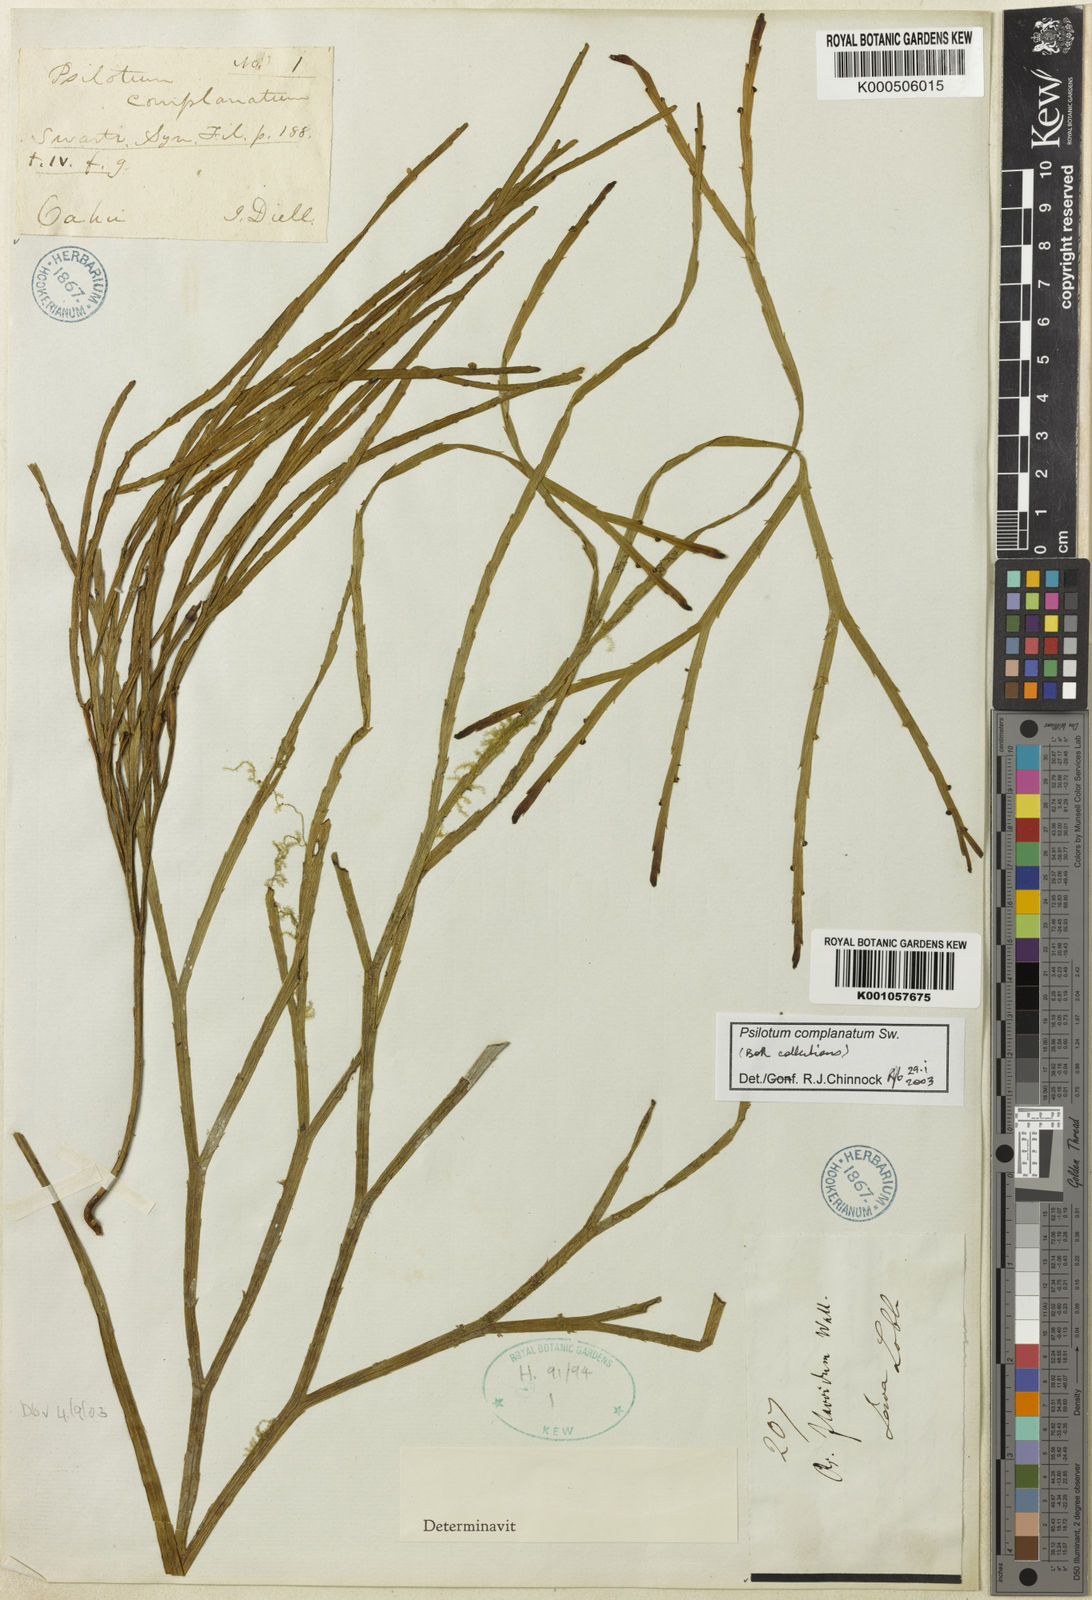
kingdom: Plantae
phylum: Tracheophyta
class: Polypodiopsida
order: Psilotales
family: Psilotaceae
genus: Psilotum
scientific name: Psilotum complanatum
